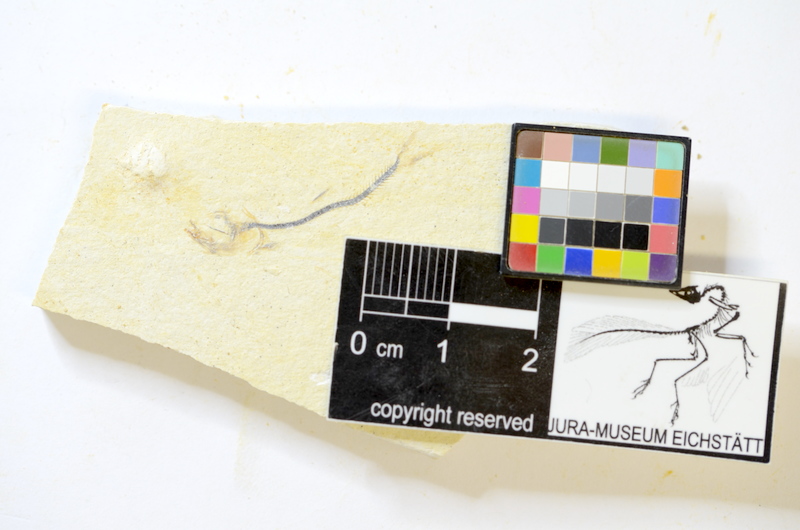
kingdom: Animalia
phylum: Chordata
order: Salmoniformes
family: Orthogonikleithridae
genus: Orthogonikleithrus
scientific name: Orthogonikleithrus hoelli
